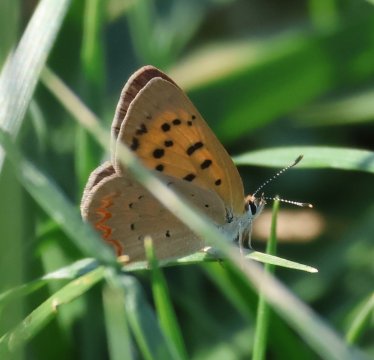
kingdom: Animalia
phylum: Arthropoda
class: Insecta
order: Lepidoptera
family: Sesiidae
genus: Sesia
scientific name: Sesia Lycaena helloides
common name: Purplish Copper
